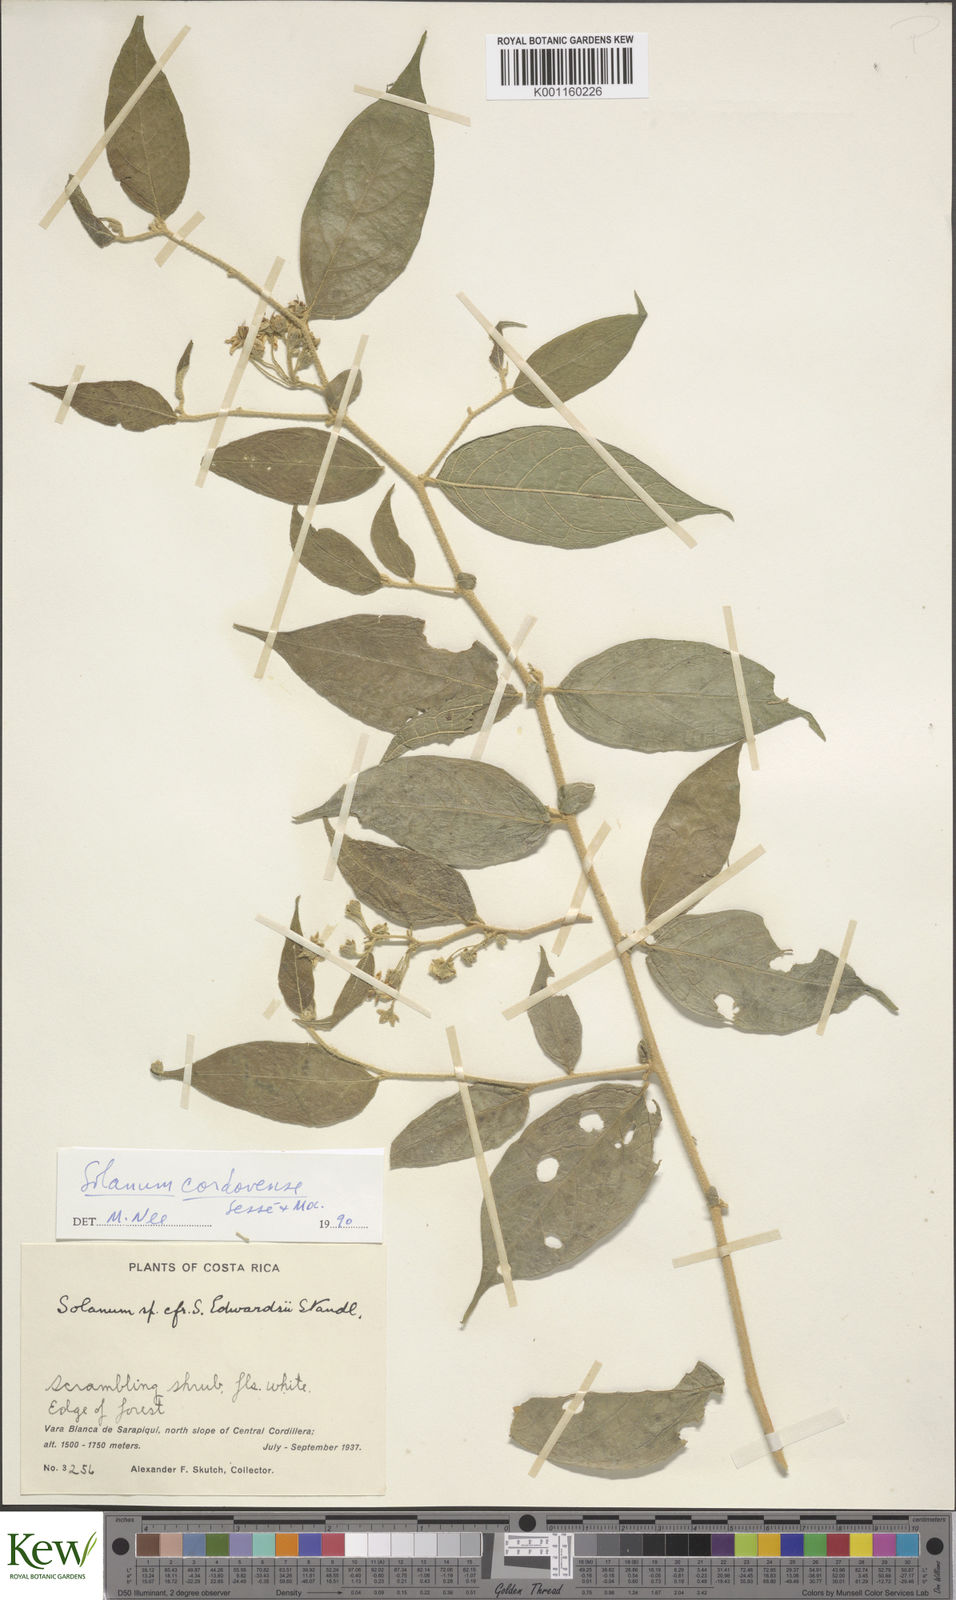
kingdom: Plantae
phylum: Tracheophyta
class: Magnoliopsida
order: Solanales
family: Solanaceae
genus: Solanum
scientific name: Solanum
